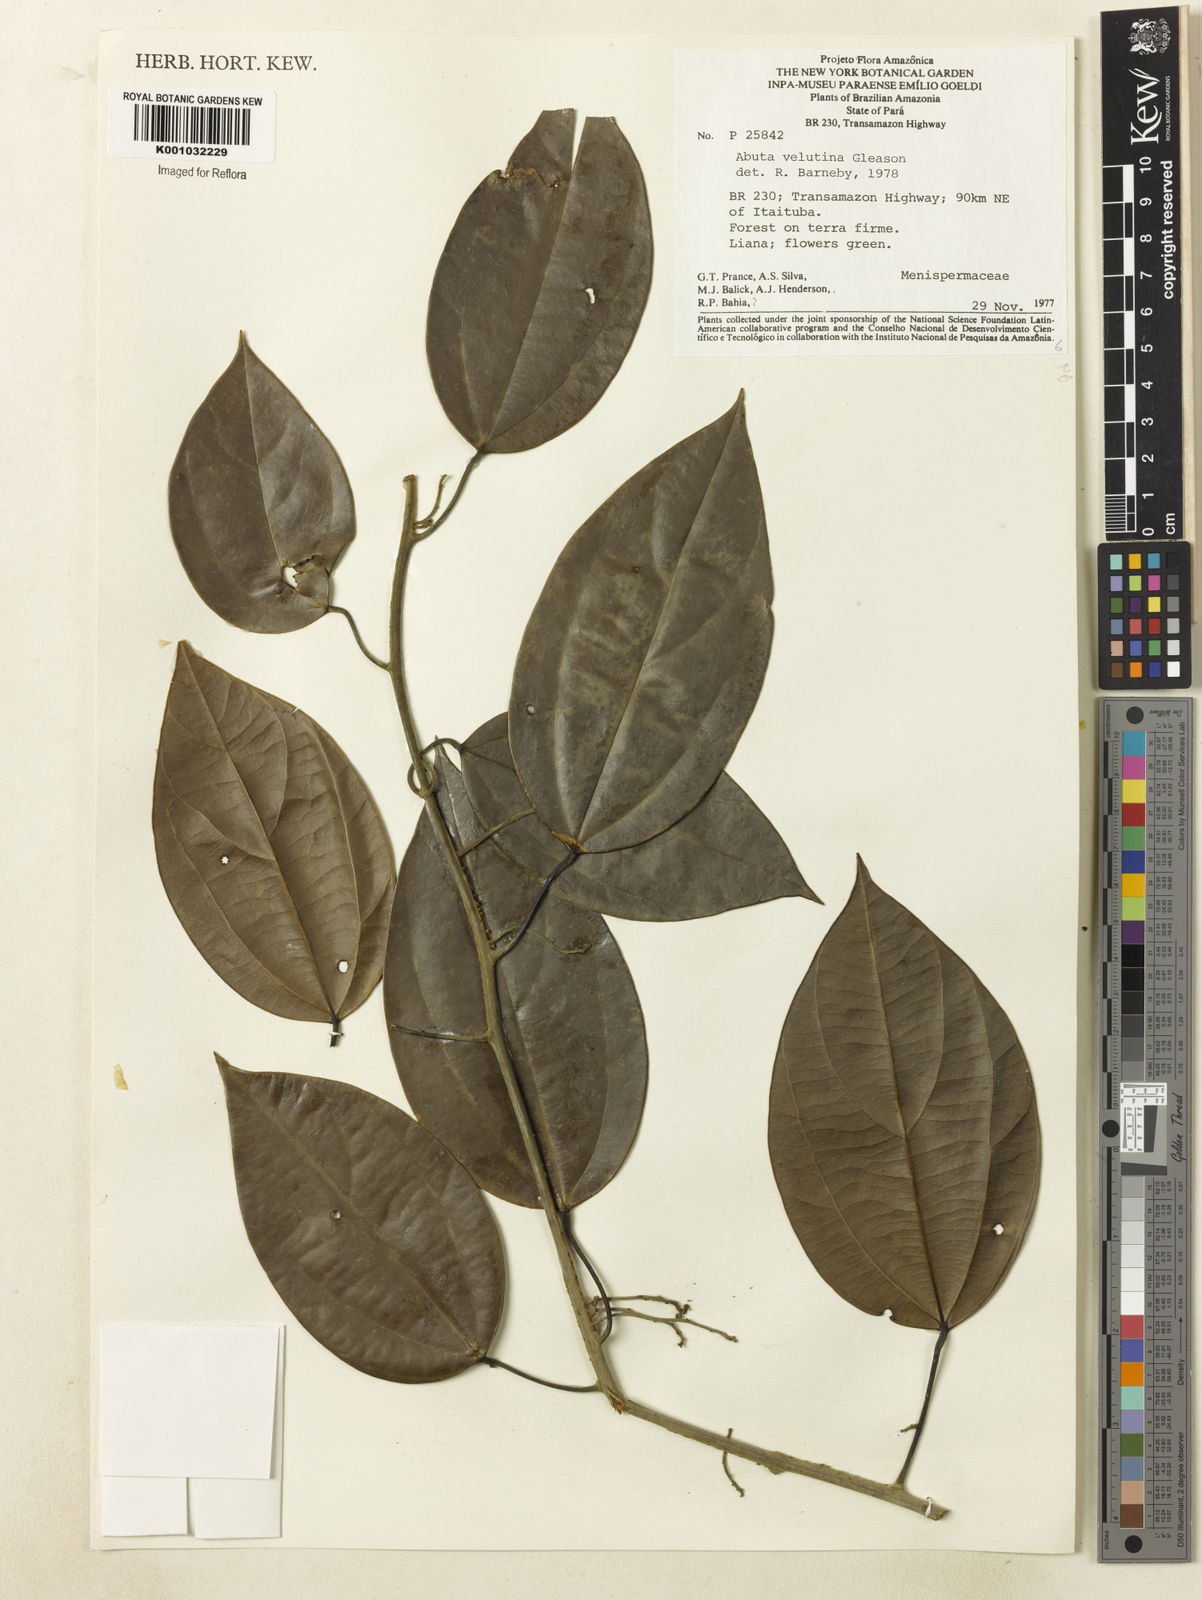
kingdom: Plantae
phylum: Tracheophyta
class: Magnoliopsida
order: Ranunculales
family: Menispermaceae
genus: Abuta
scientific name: Abuta velutina
